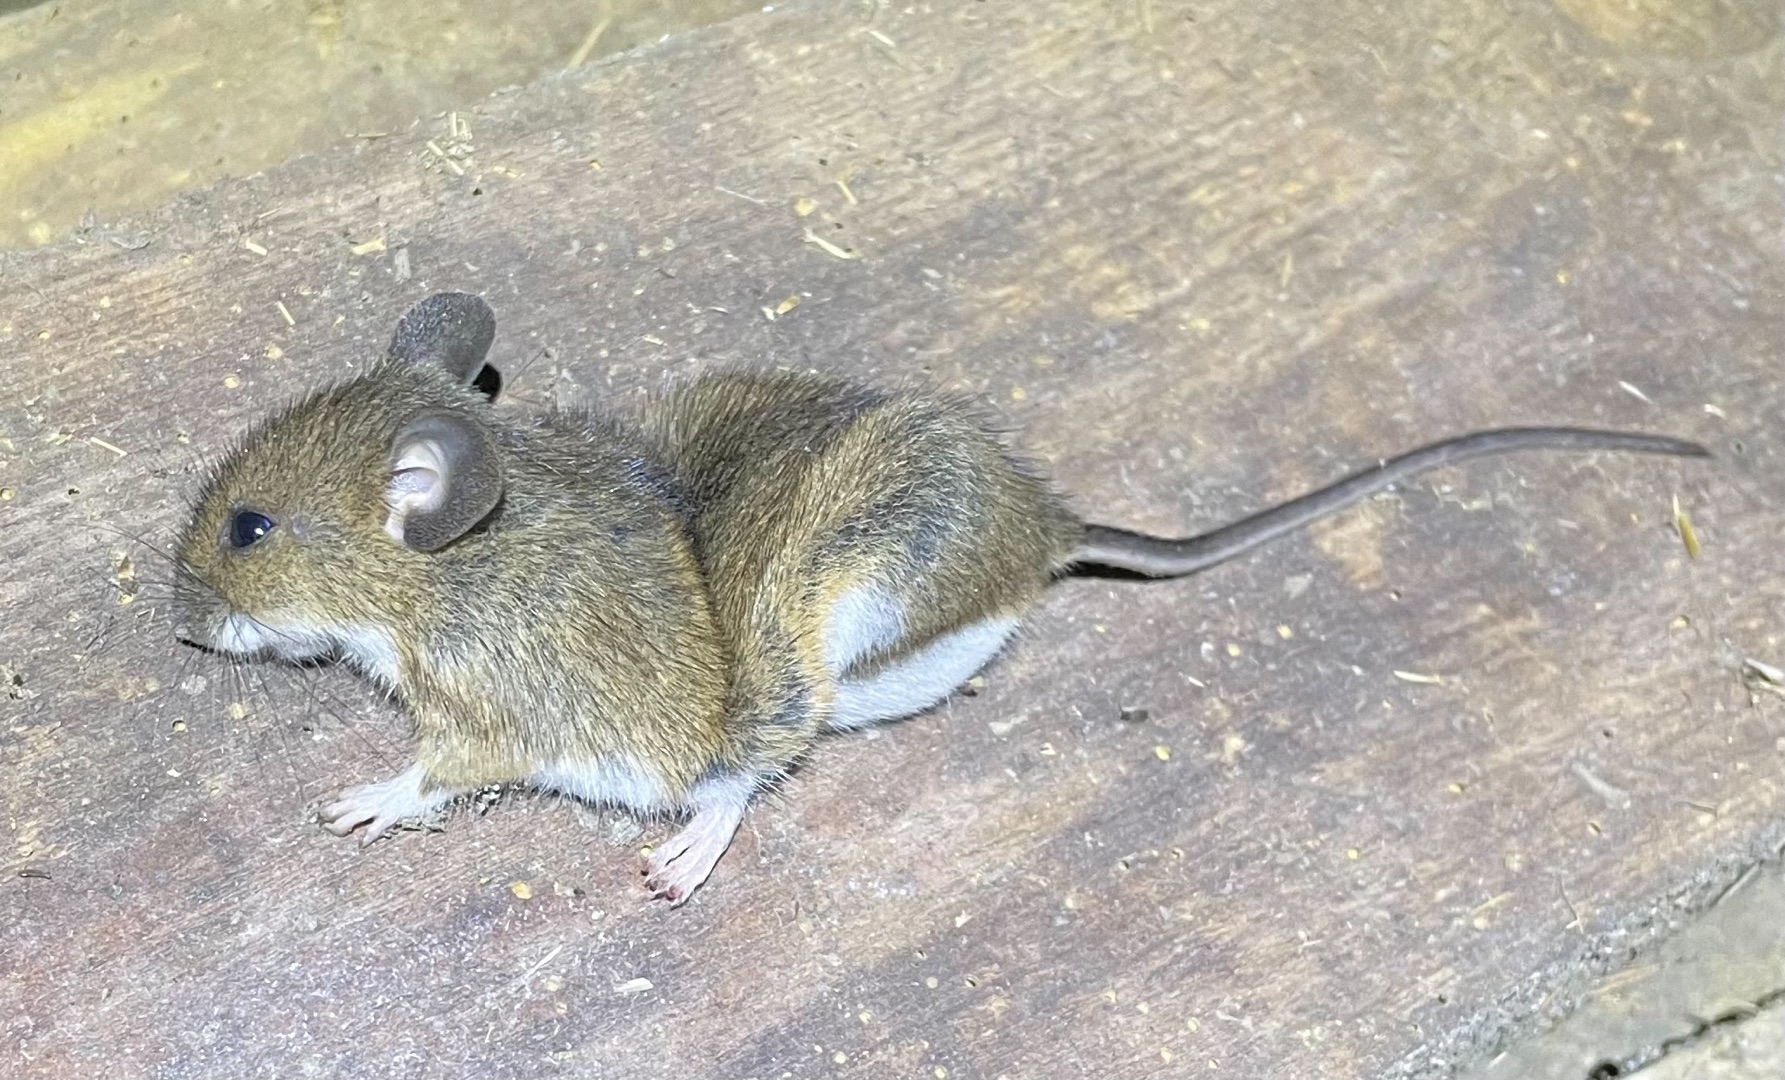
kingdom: Animalia
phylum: Chordata
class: Mammalia
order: Rodentia
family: Muridae
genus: Apodemus
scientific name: Apodemus flavicollis
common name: Halsbåndmus
